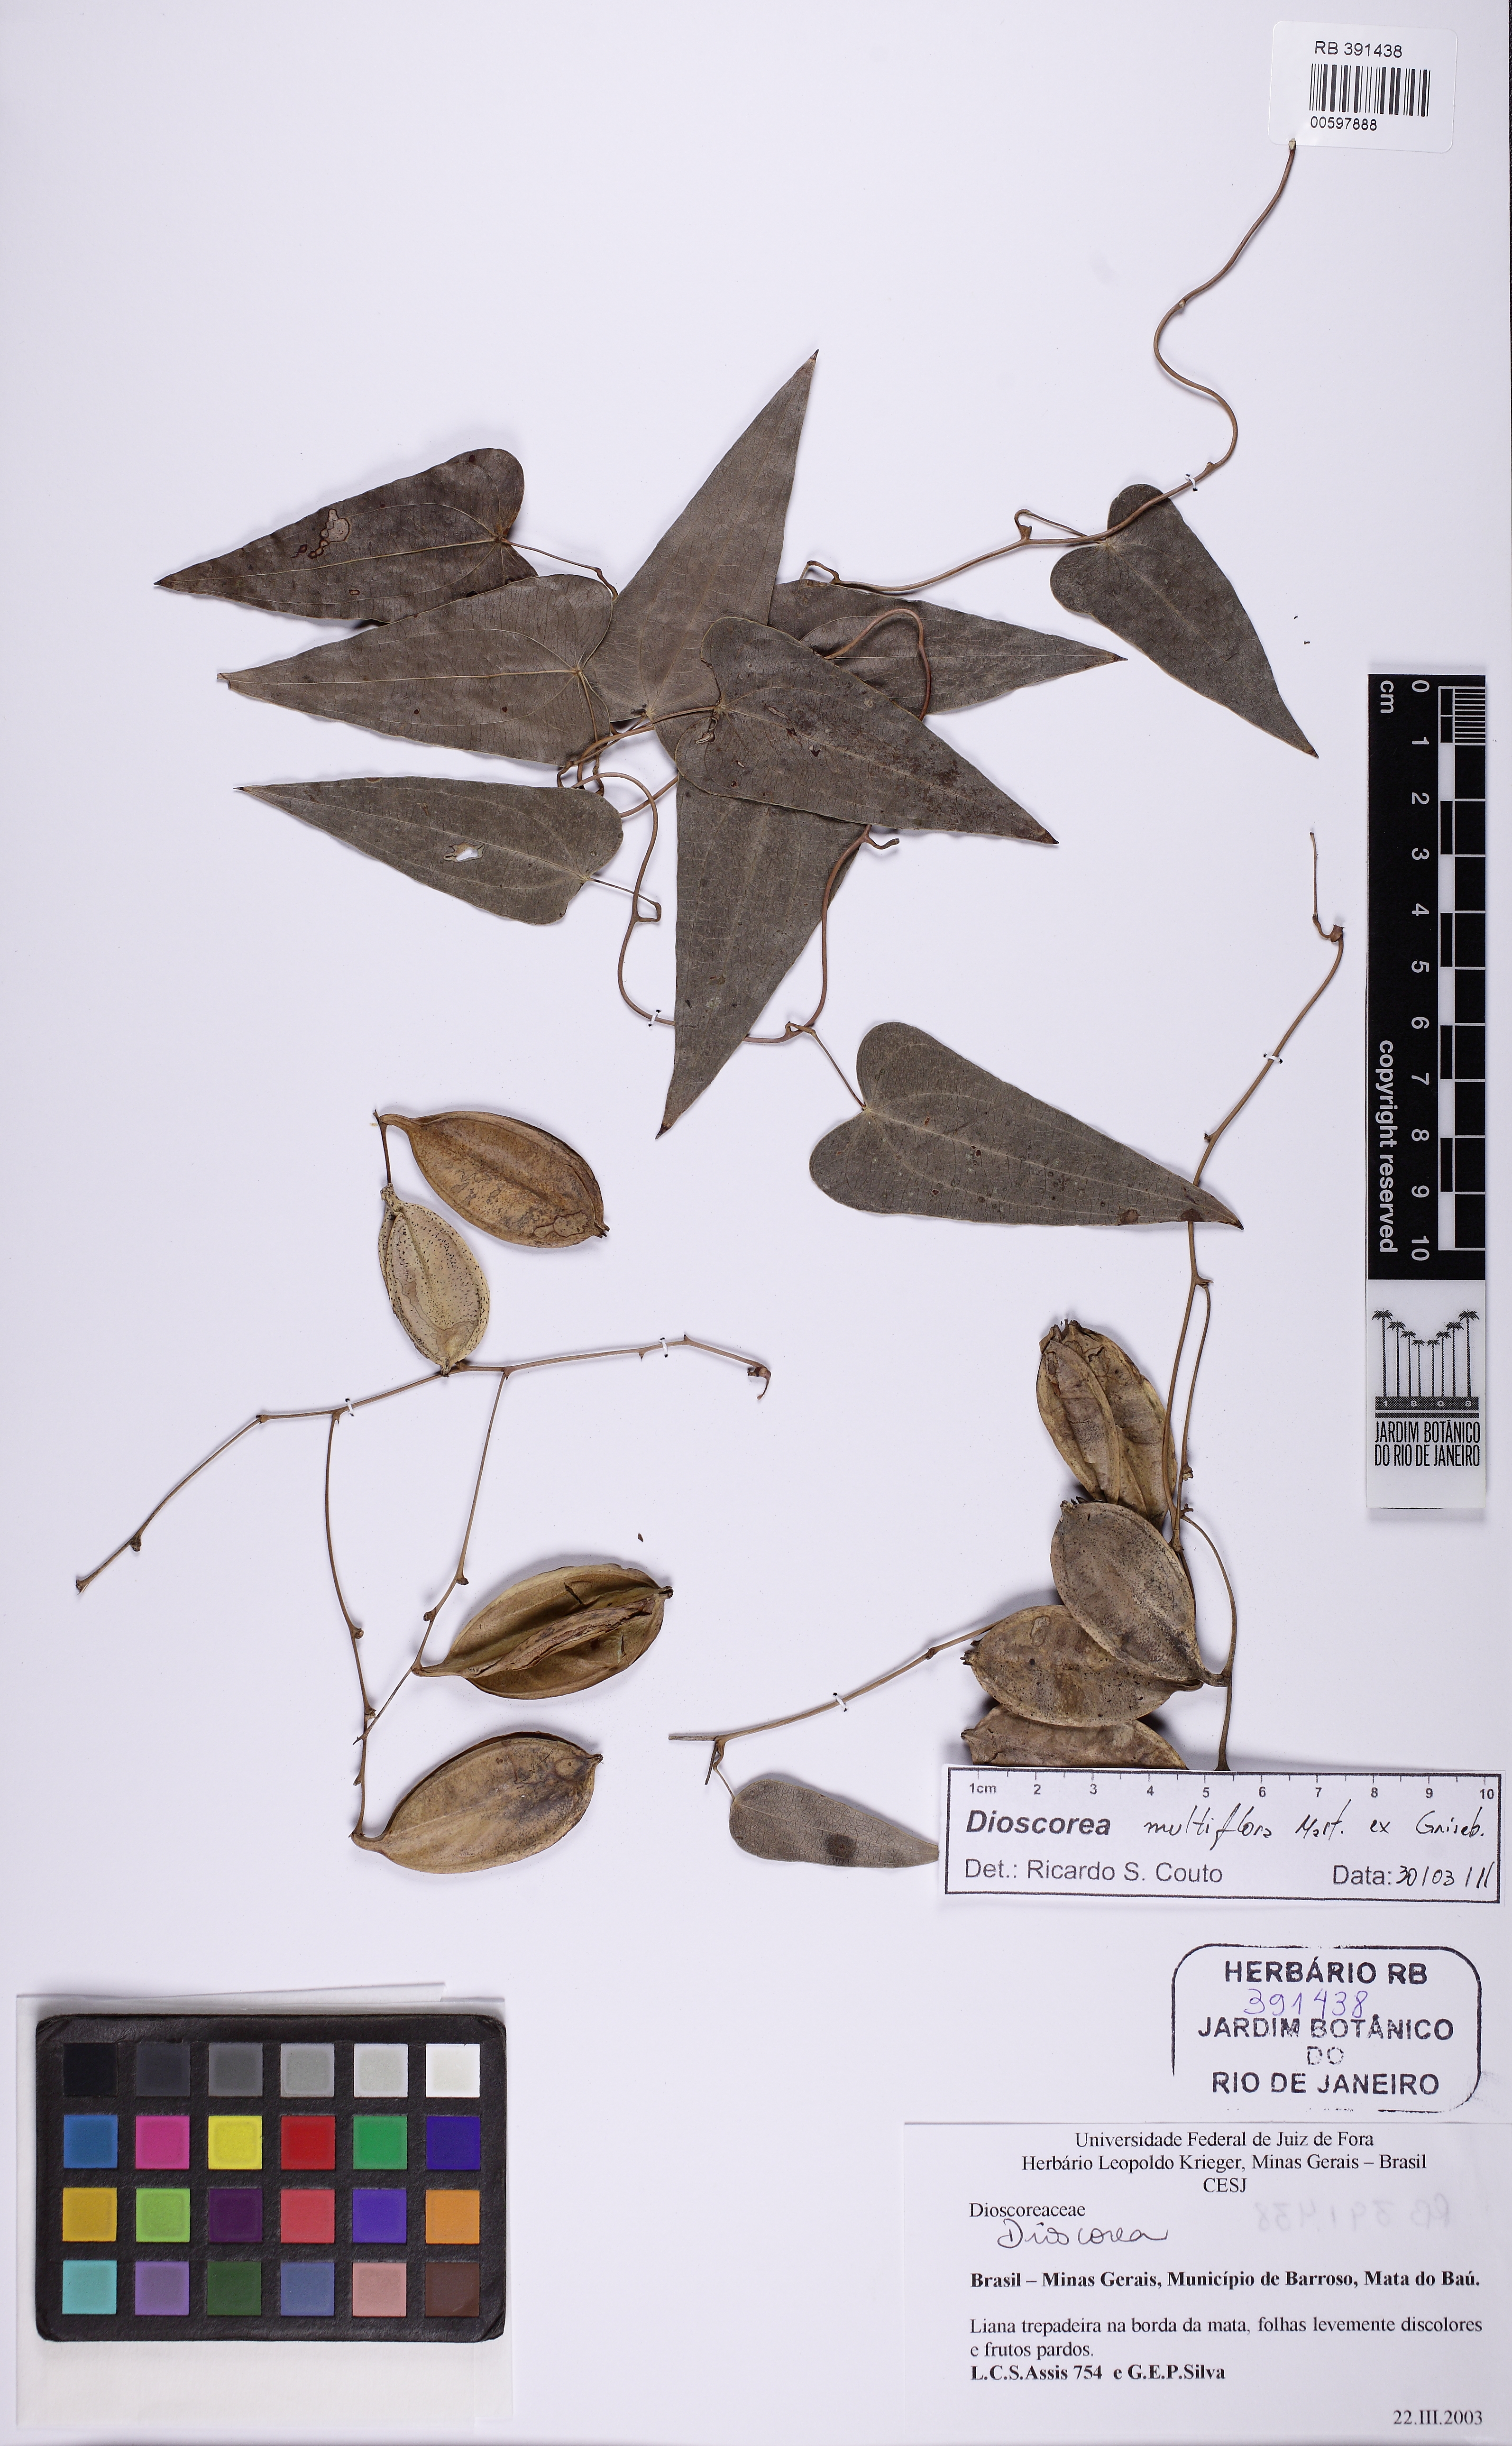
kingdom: Plantae
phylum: Tracheophyta
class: Liliopsida
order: Dioscoreales
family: Dioscoreaceae
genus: Dioscorea
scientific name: Dioscorea multiflora
